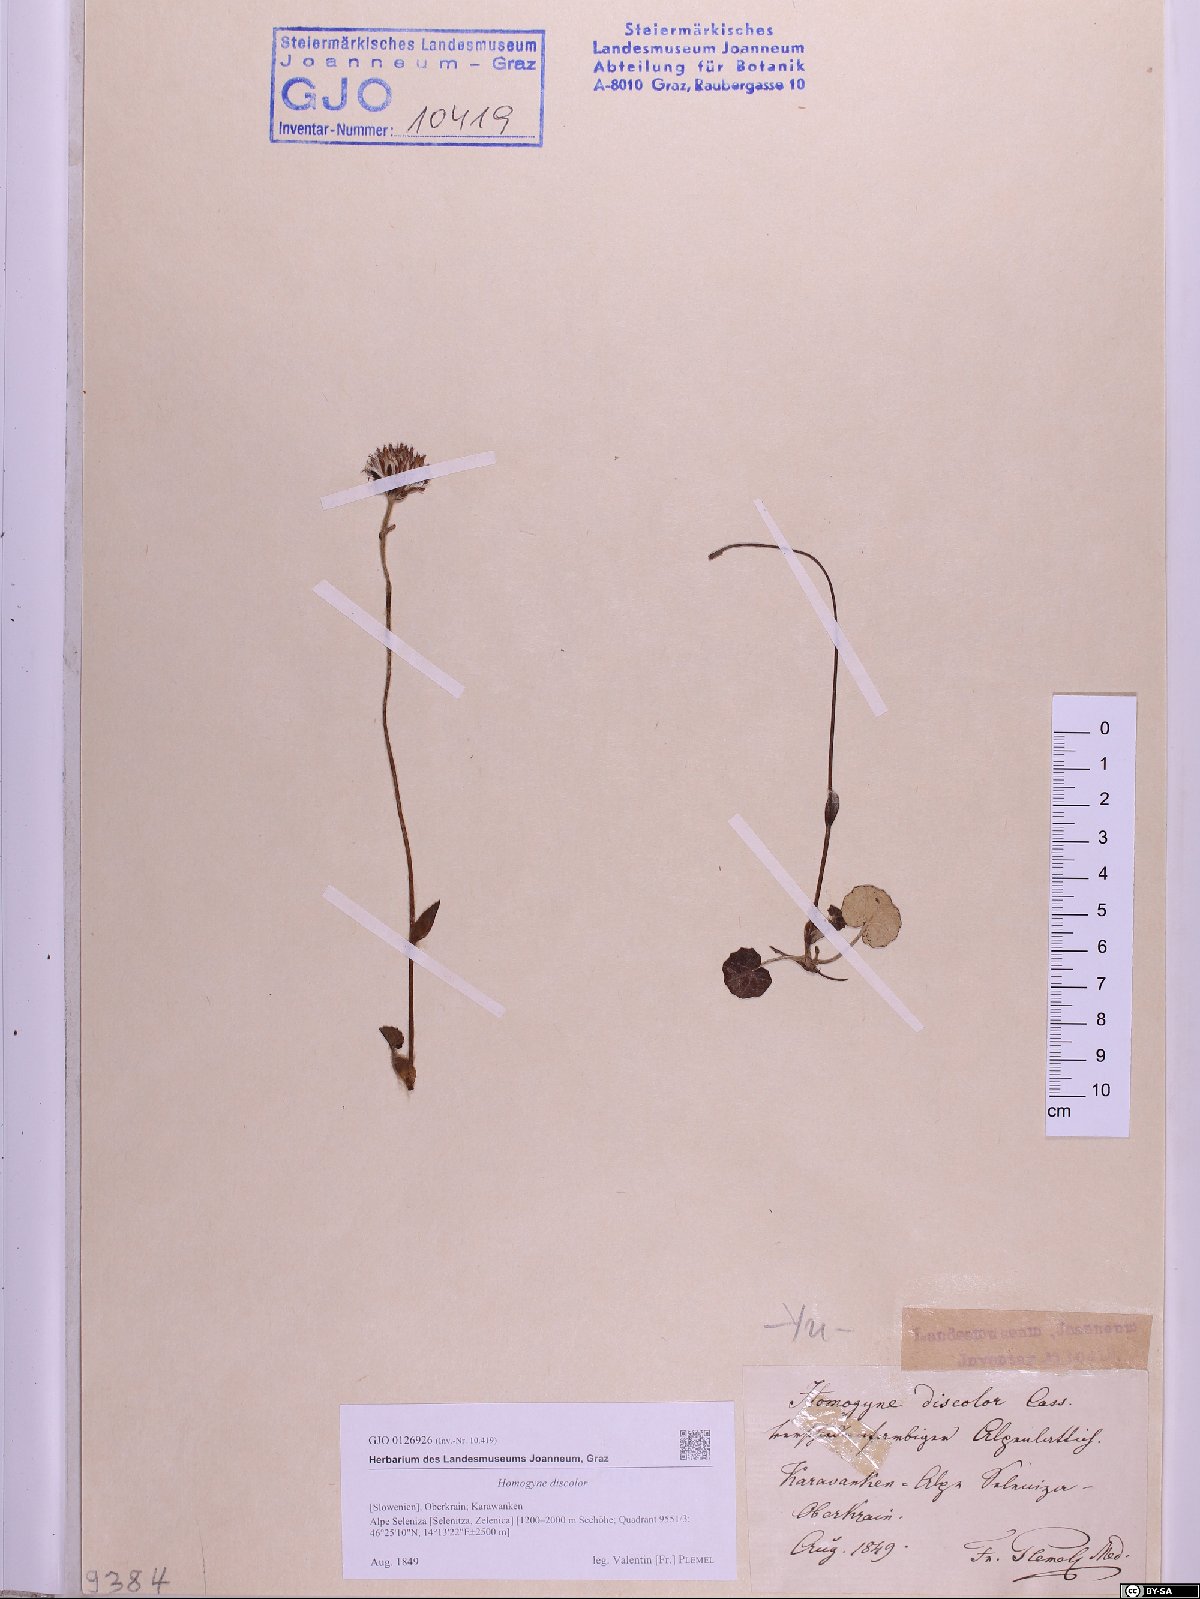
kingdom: Plantae
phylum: Tracheophyta
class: Magnoliopsida
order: Asterales
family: Asteraceae
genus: Homogyne
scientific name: Homogyne discolor
